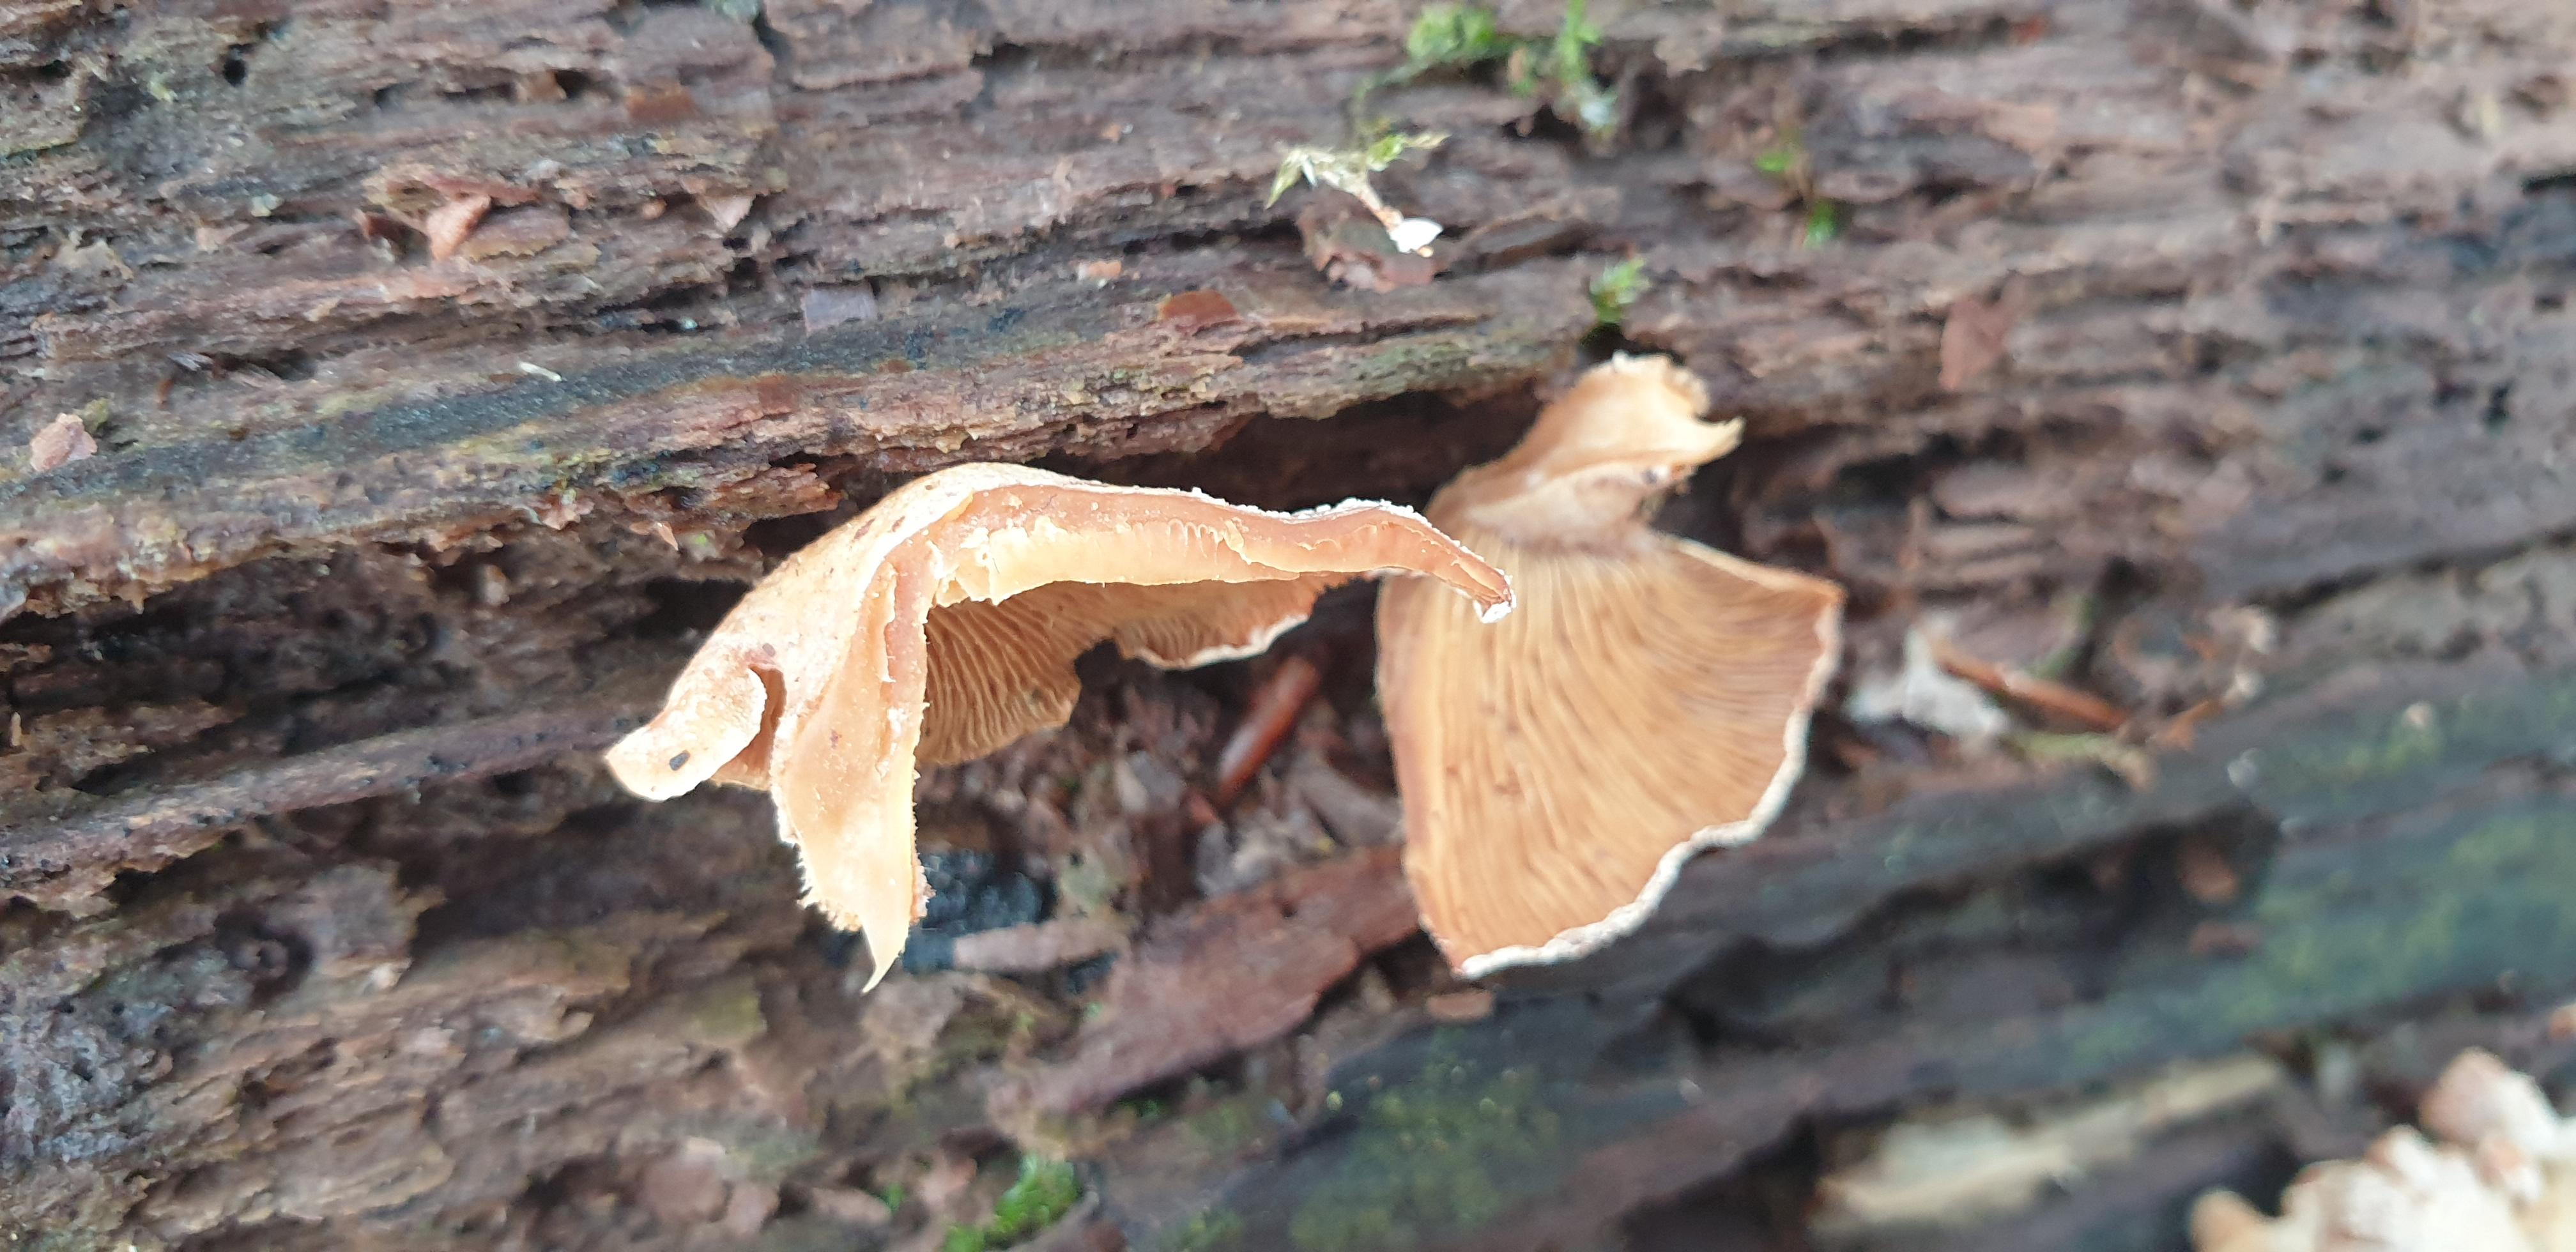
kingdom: Fungi
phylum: Basidiomycota
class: Agaricomycetes
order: Agaricales
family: Mycenaceae
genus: Panellus
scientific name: Panellus stipticus
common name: kliddet epaulethat
